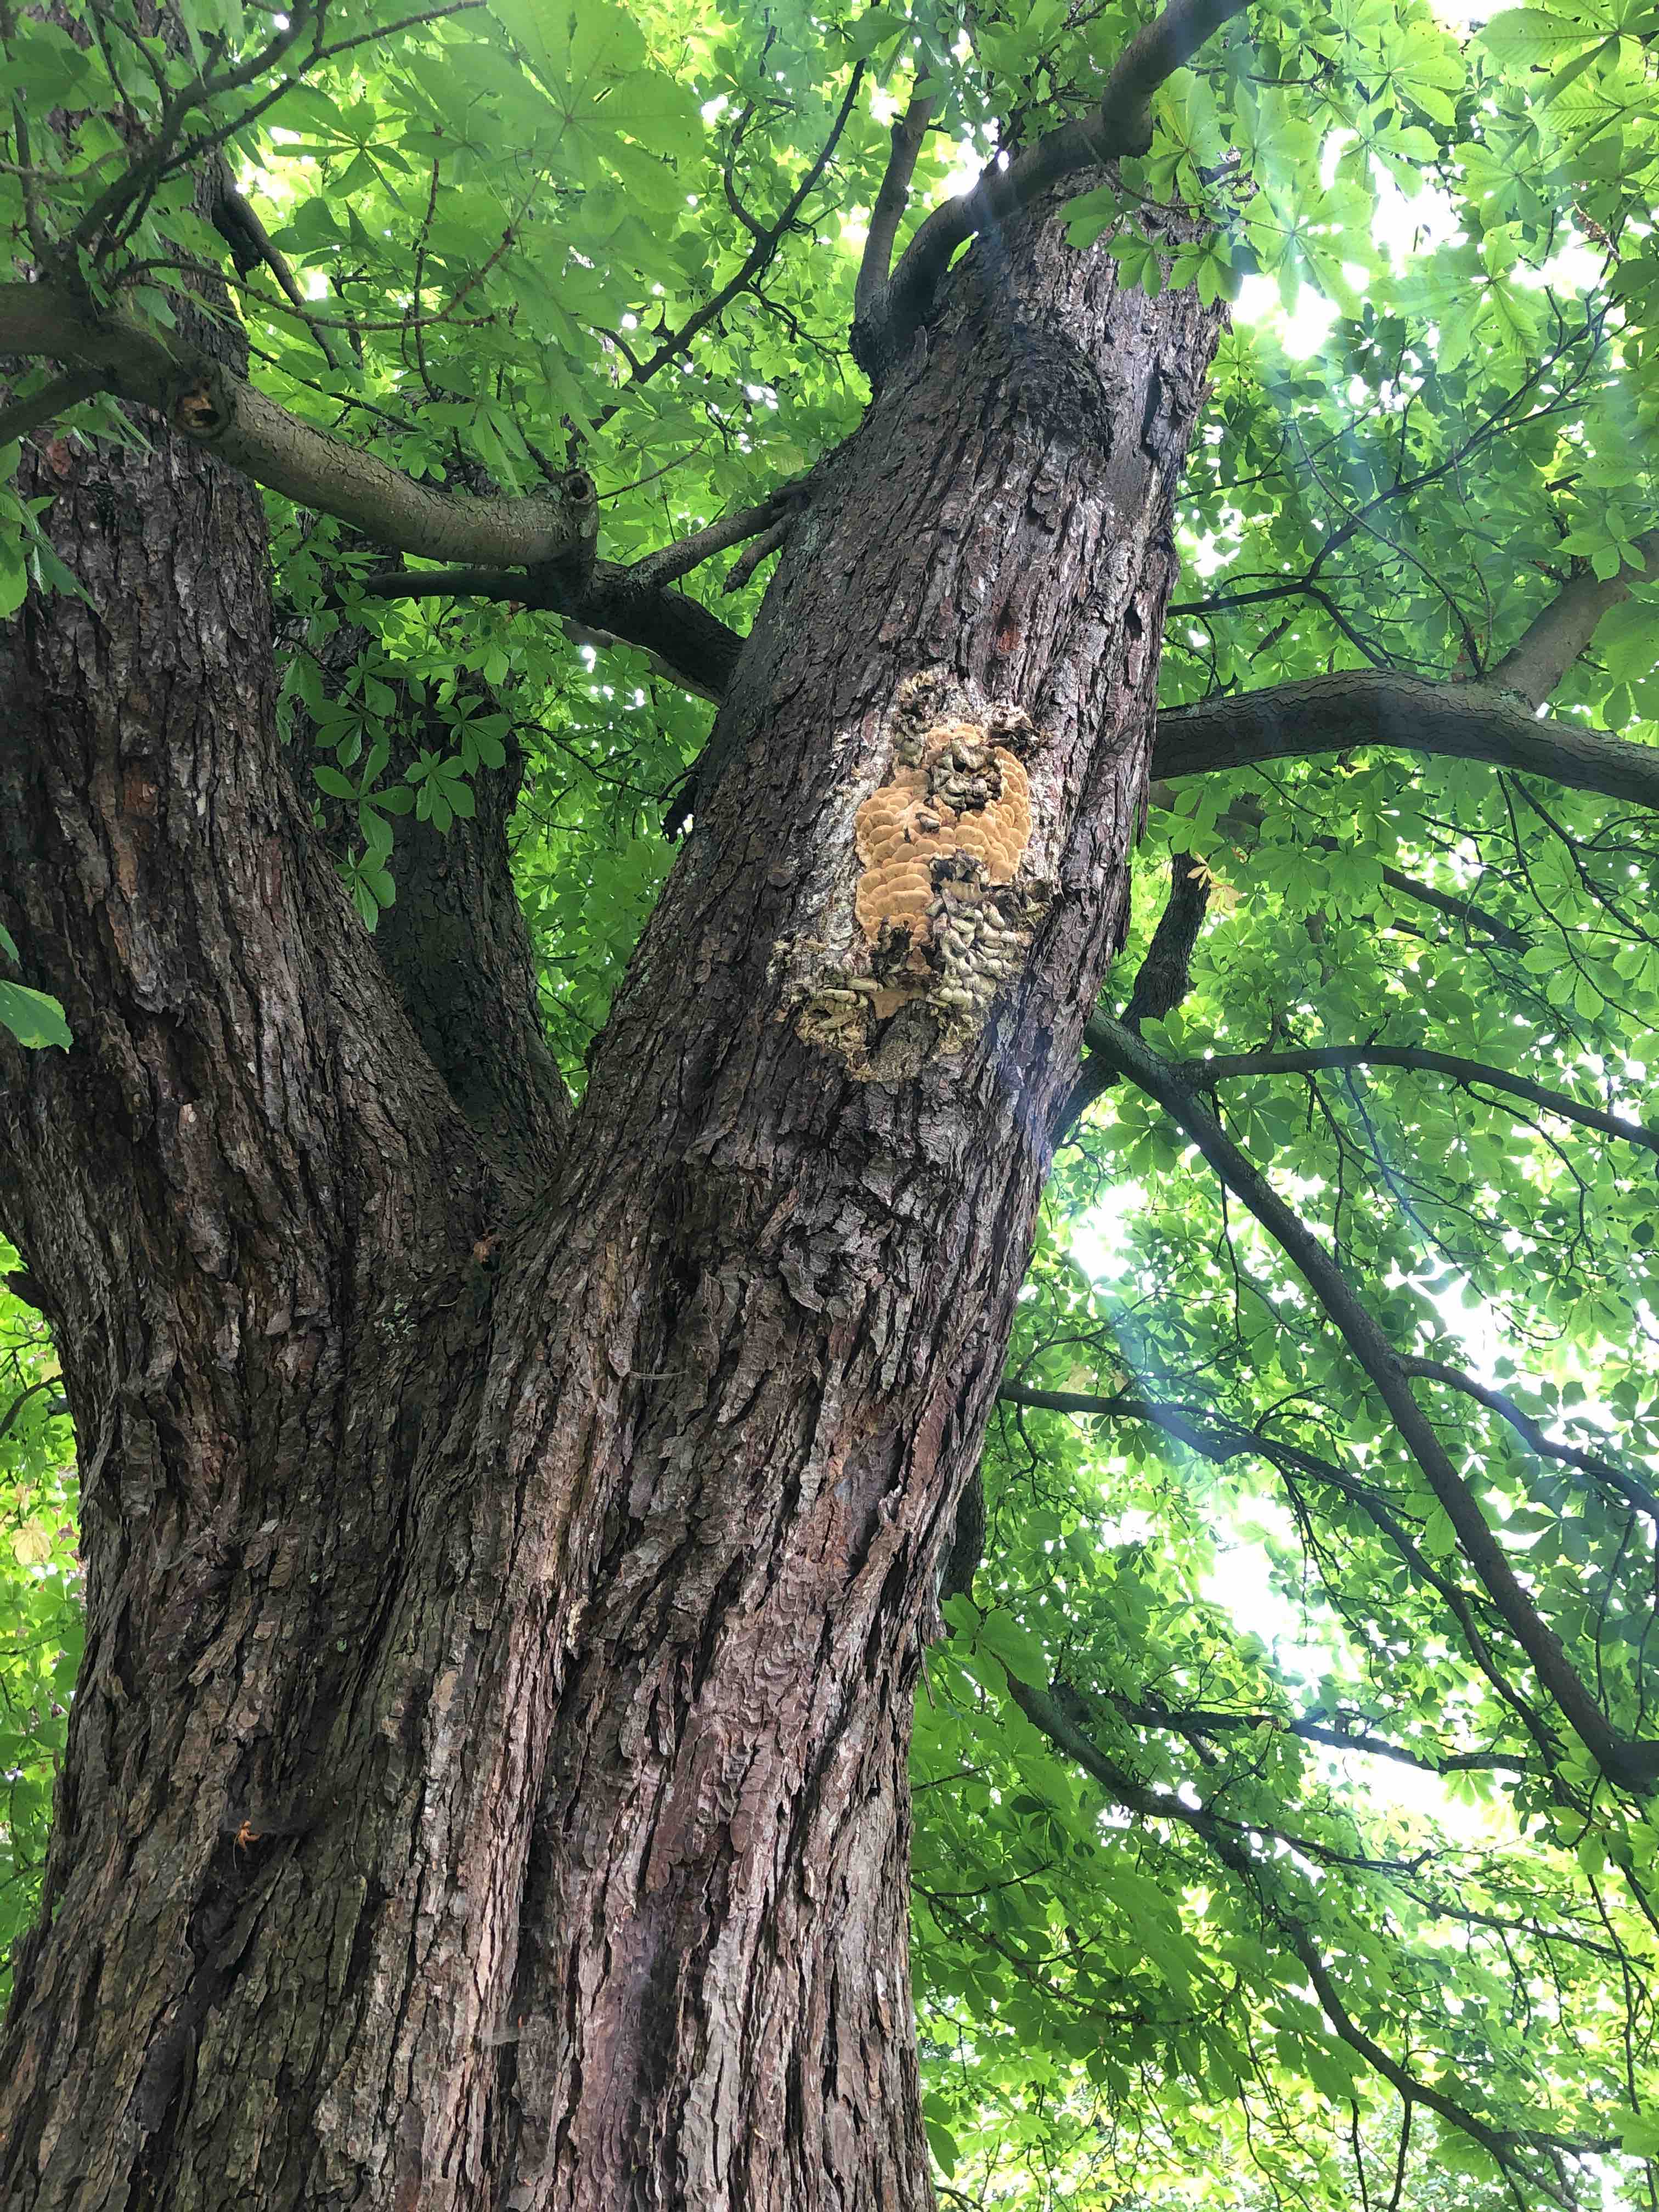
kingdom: Fungi
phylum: Basidiomycota
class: Agaricomycetes
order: Polyporales
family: Meruliaceae
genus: Climacodon
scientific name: Climacodon septentrionalis
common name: kæmpepigsvamp
